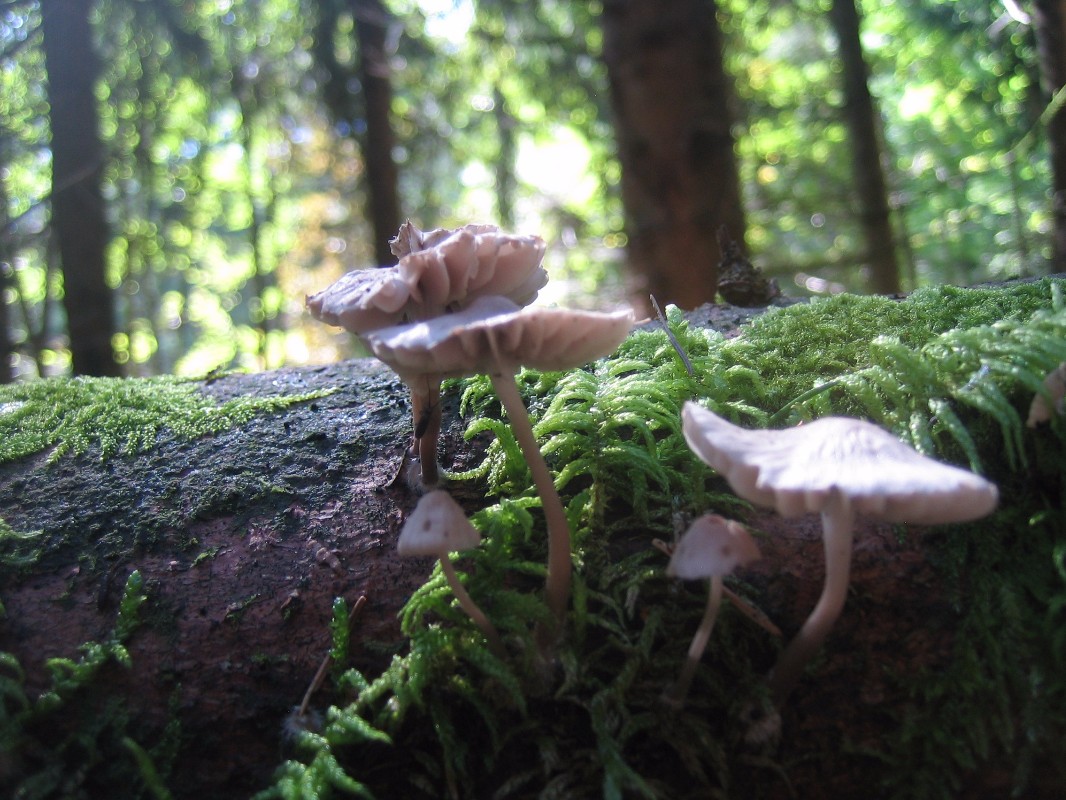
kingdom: Fungi
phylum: Basidiomycota
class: Agaricomycetes
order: Agaricales
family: Mycenaceae
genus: Mycena
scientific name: Mycena
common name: huesvamp
